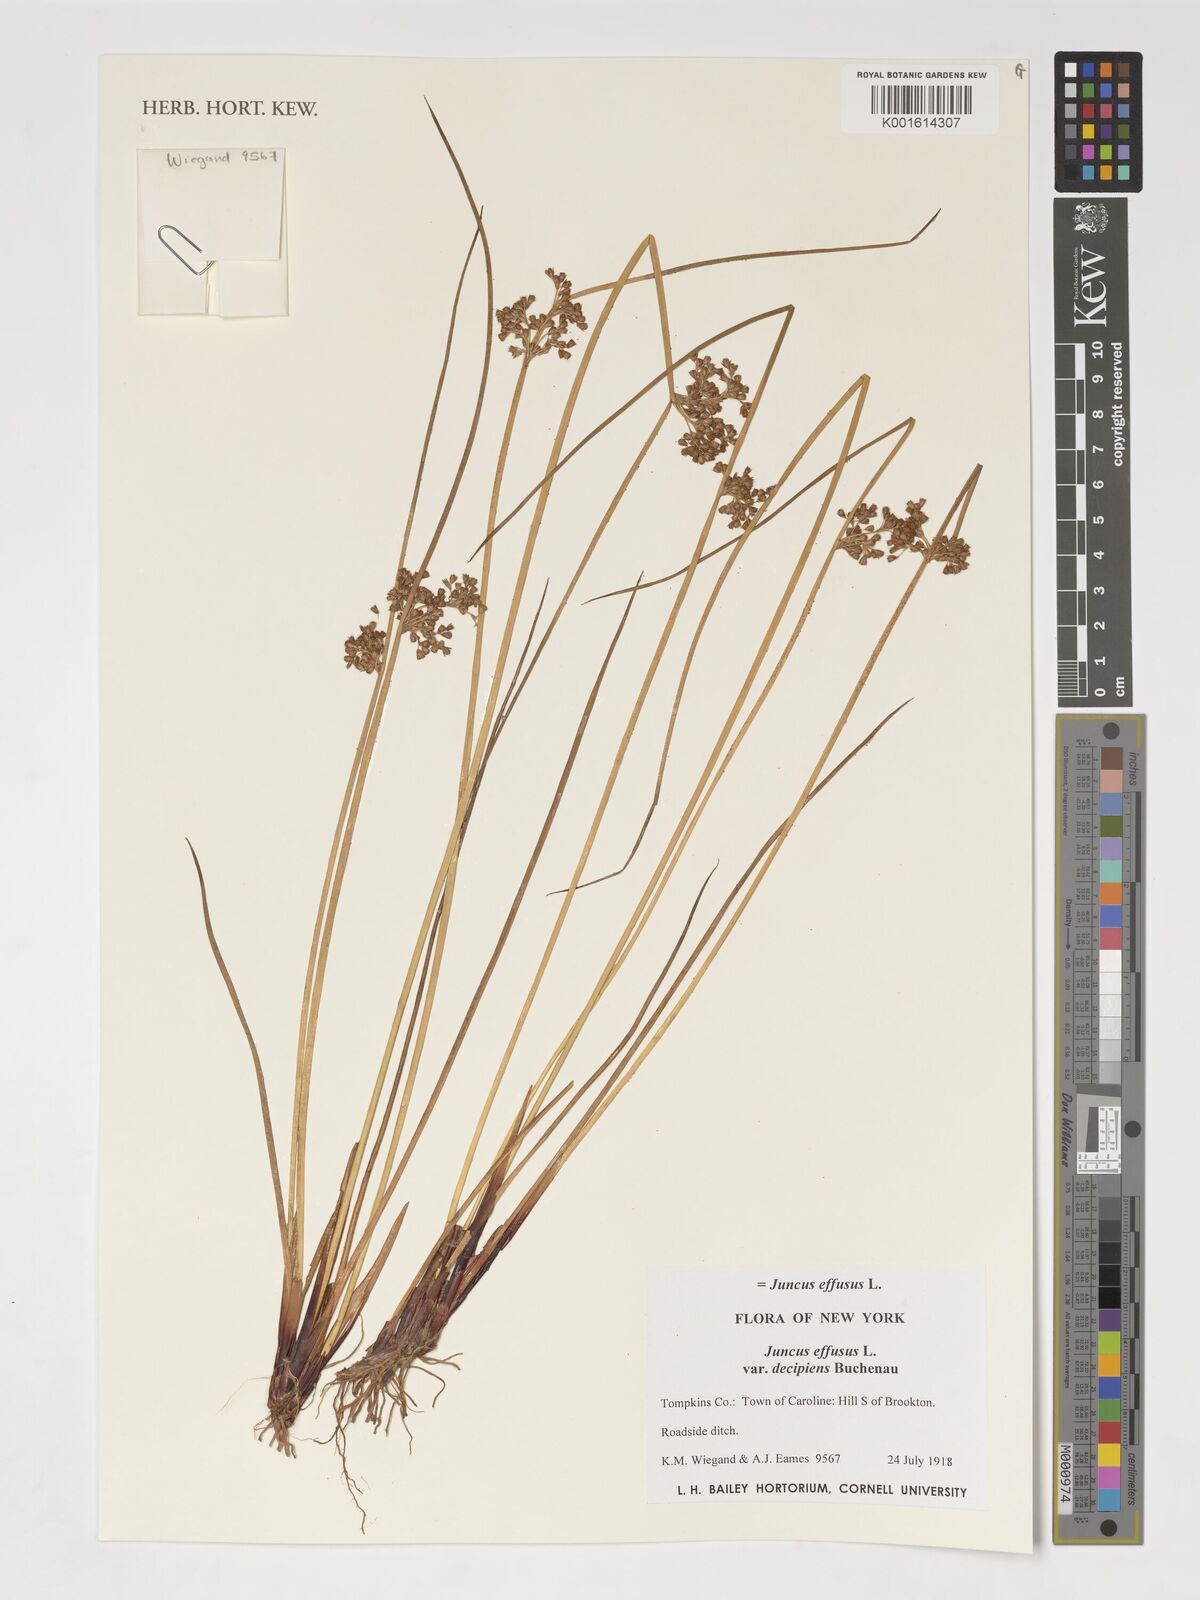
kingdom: Plantae
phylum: Tracheophyta
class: Liliopsida
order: Poales
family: Juncaceae
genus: Juncus
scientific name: Juncus decipiens
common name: Lamp rush
